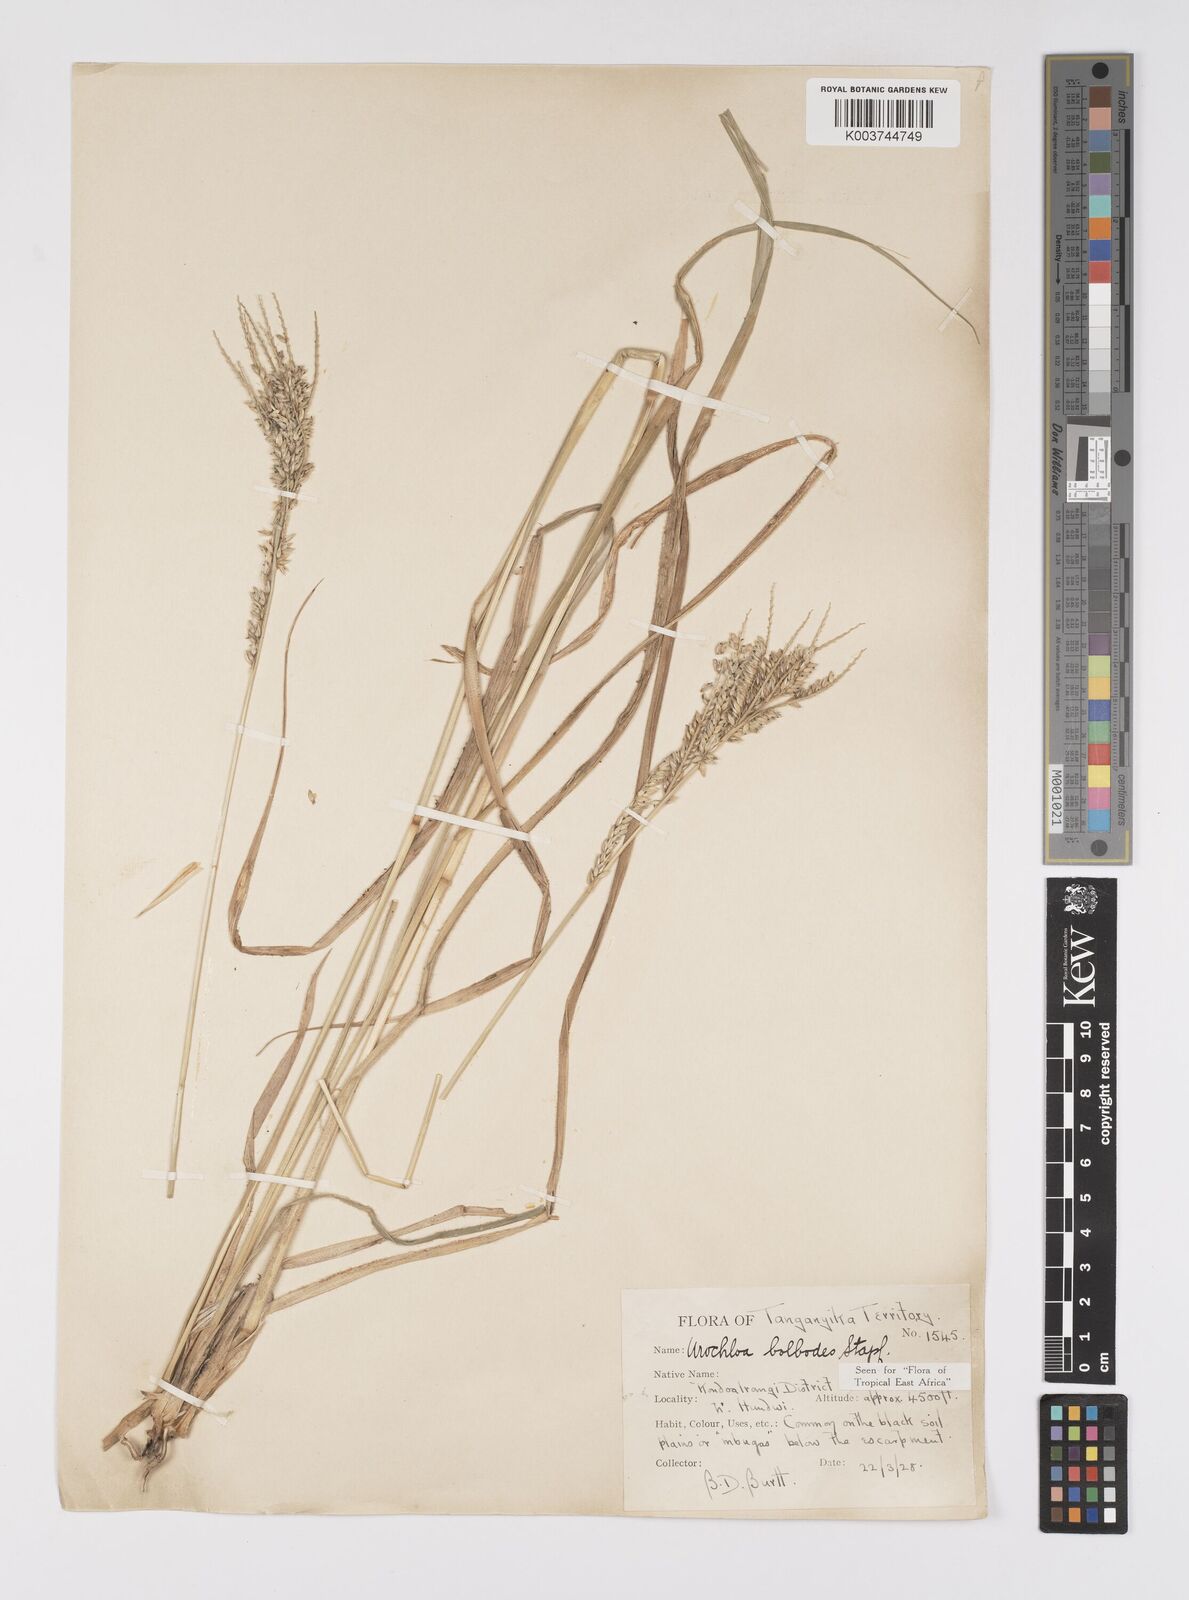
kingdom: Plantae
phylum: Tracheophyta
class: Liliopsida
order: Poales
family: Poaceae
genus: Urochloa
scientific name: Urochloa oligotricha
